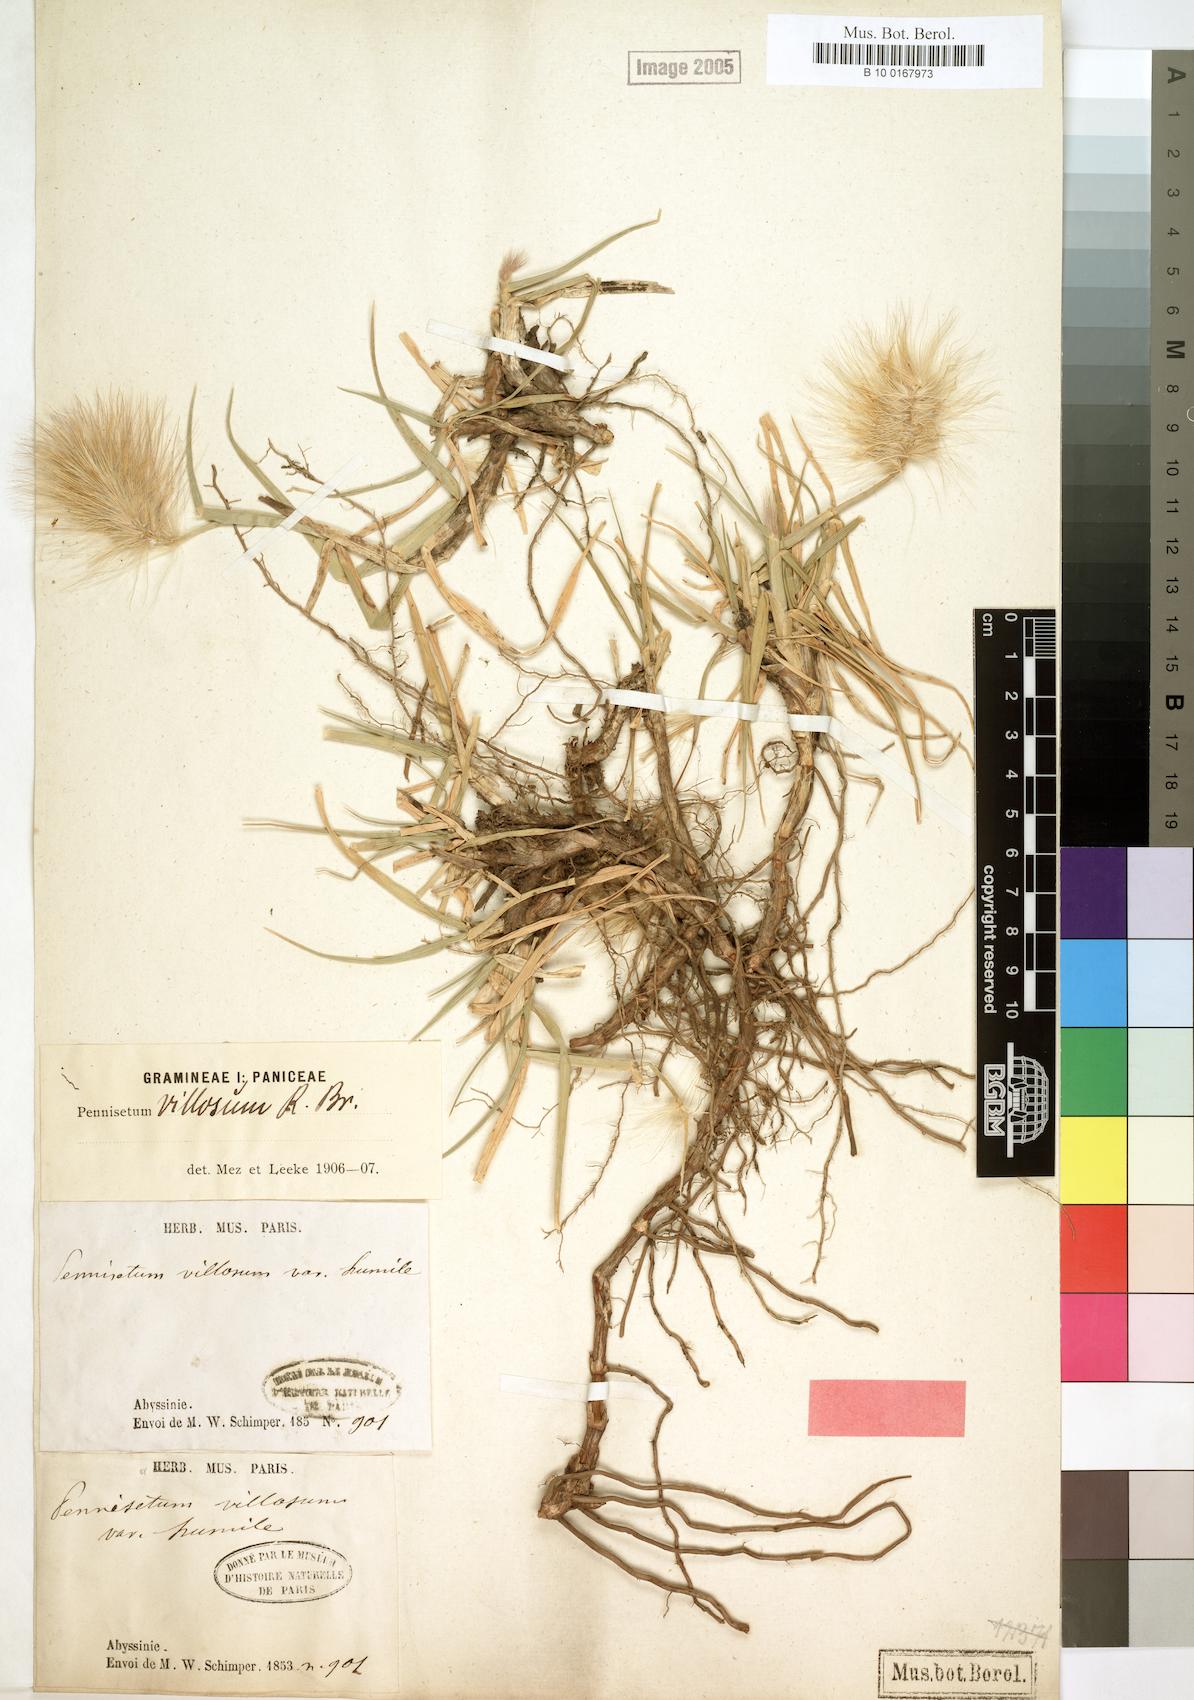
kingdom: Plantae
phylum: Tracheophyta
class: Liliopsida
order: Poales
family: Poaceae
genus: Cenchrus
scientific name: Cenchrus longisetus
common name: Feathertop
